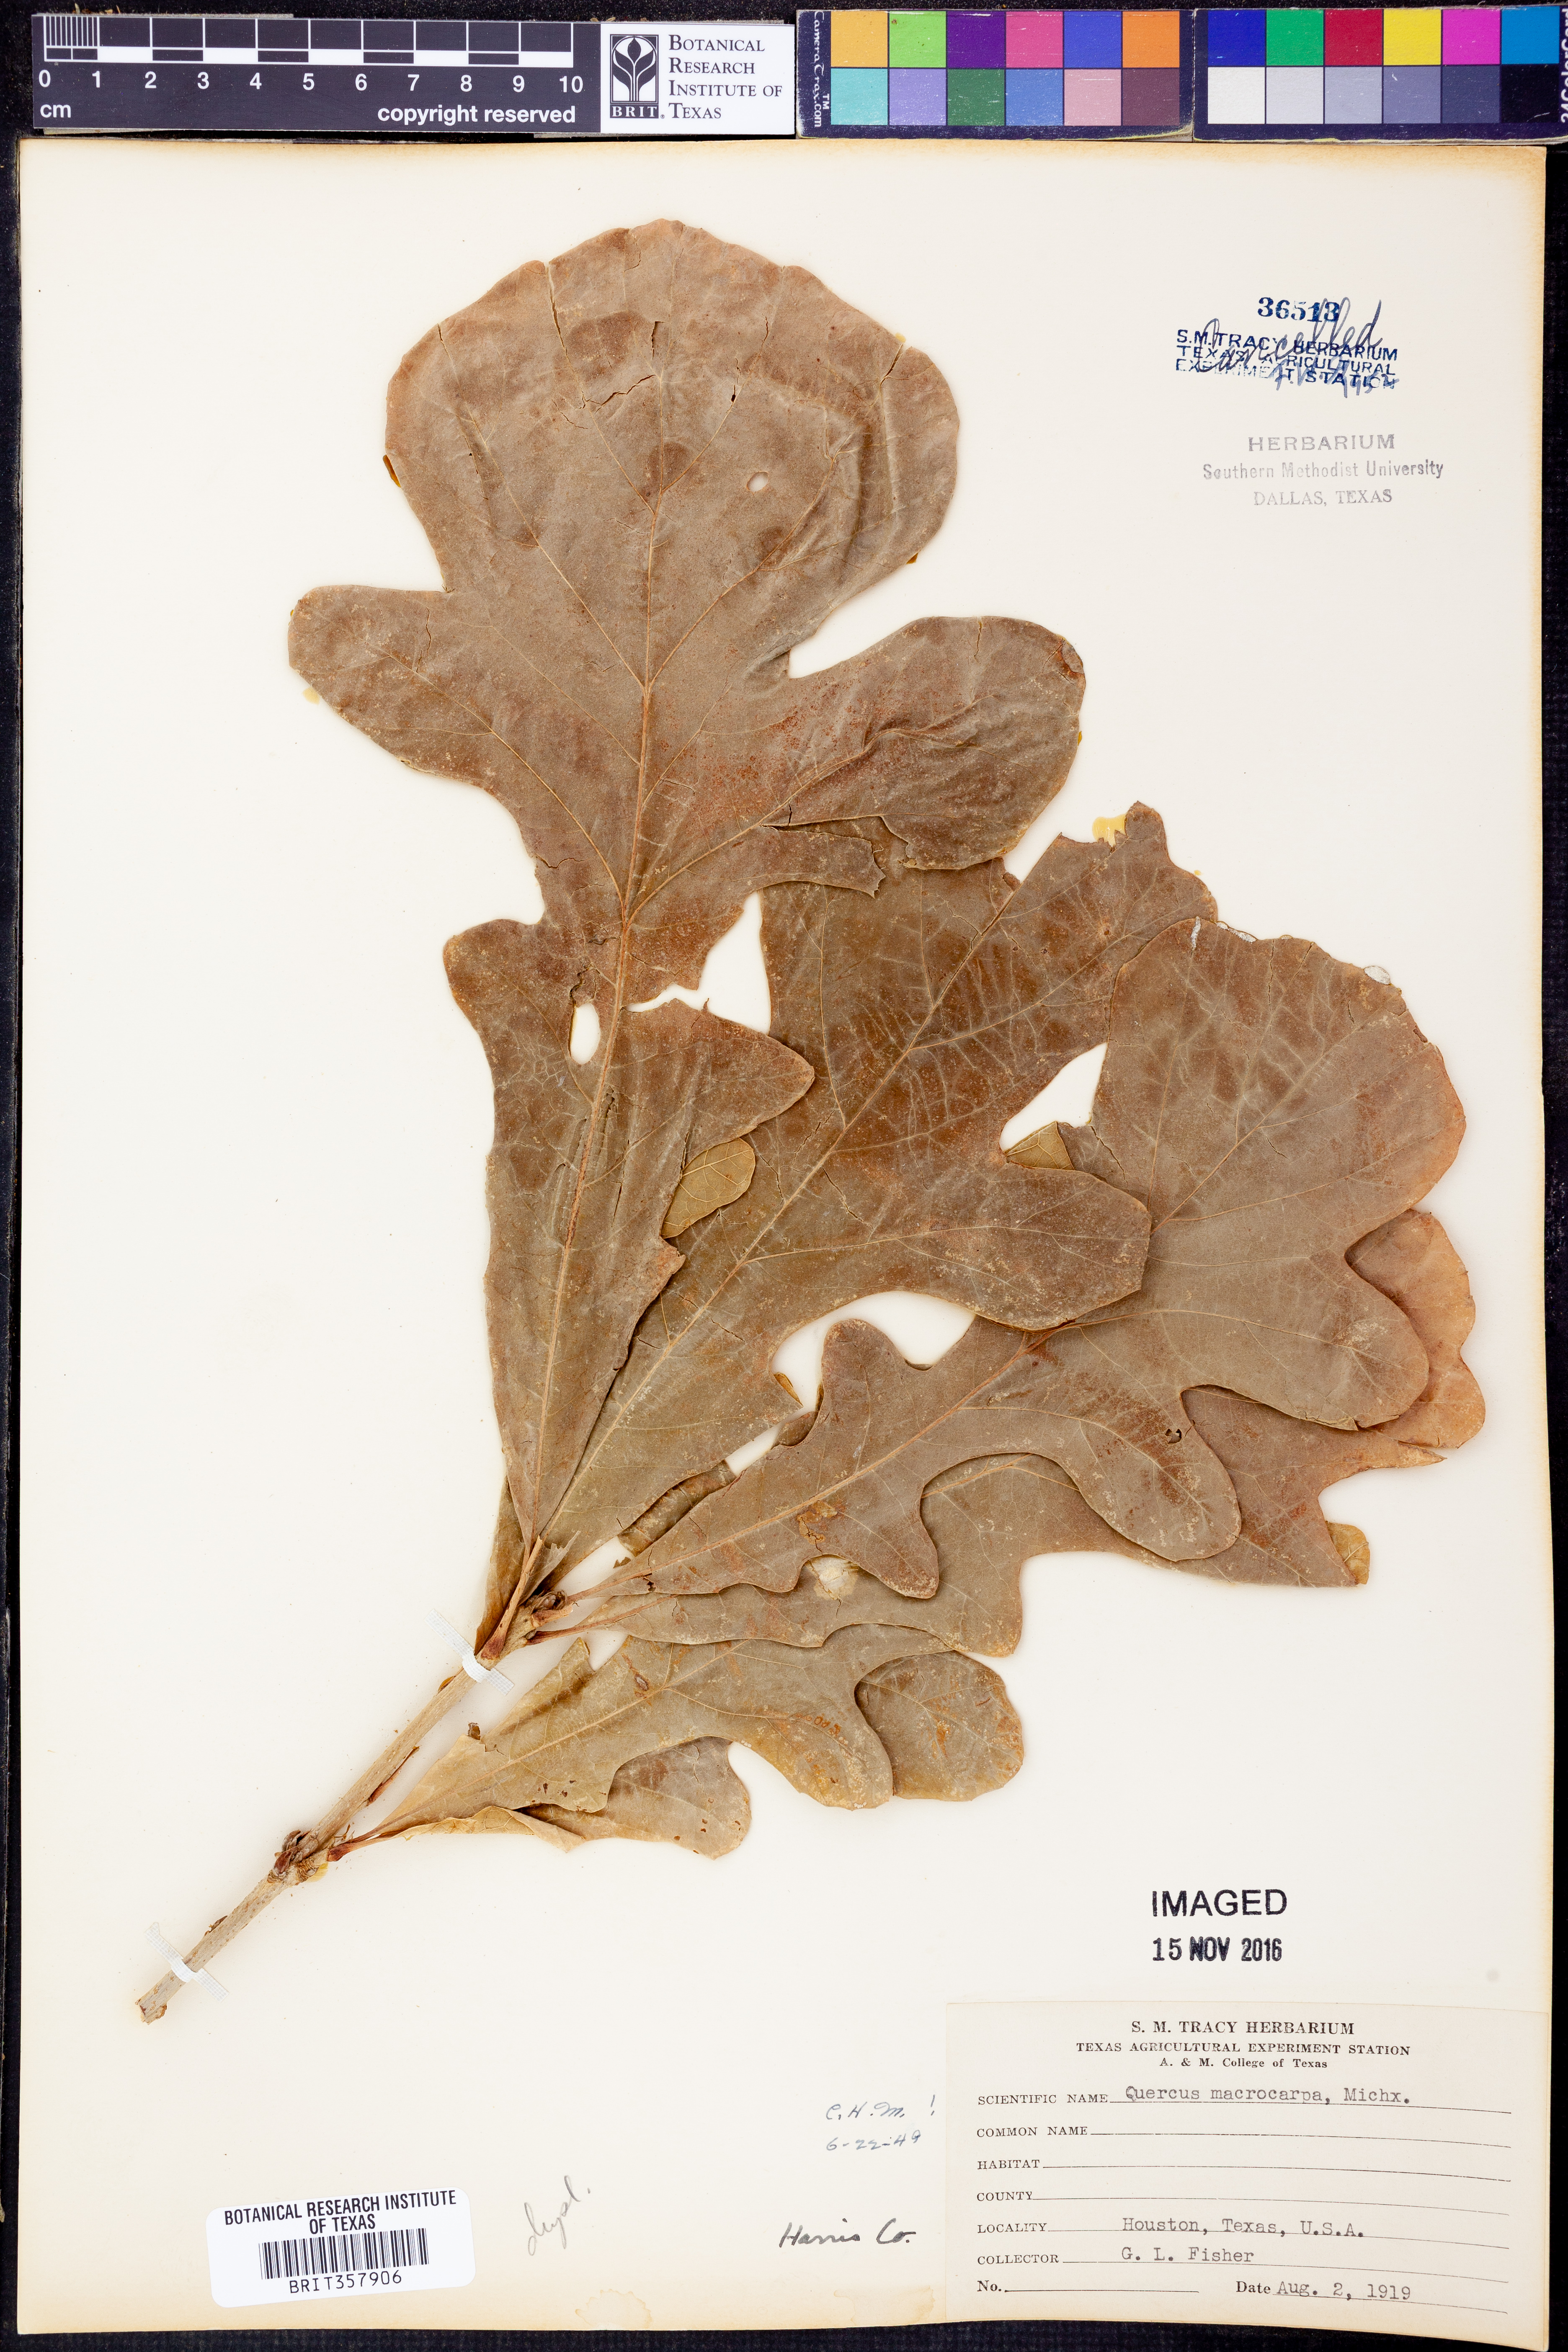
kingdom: Plantae
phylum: Tracheophyta
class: Magnoliopsida
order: Fagales
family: Fagaceae
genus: Quercus
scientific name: Quercus macrocarpa
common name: Bur oak
